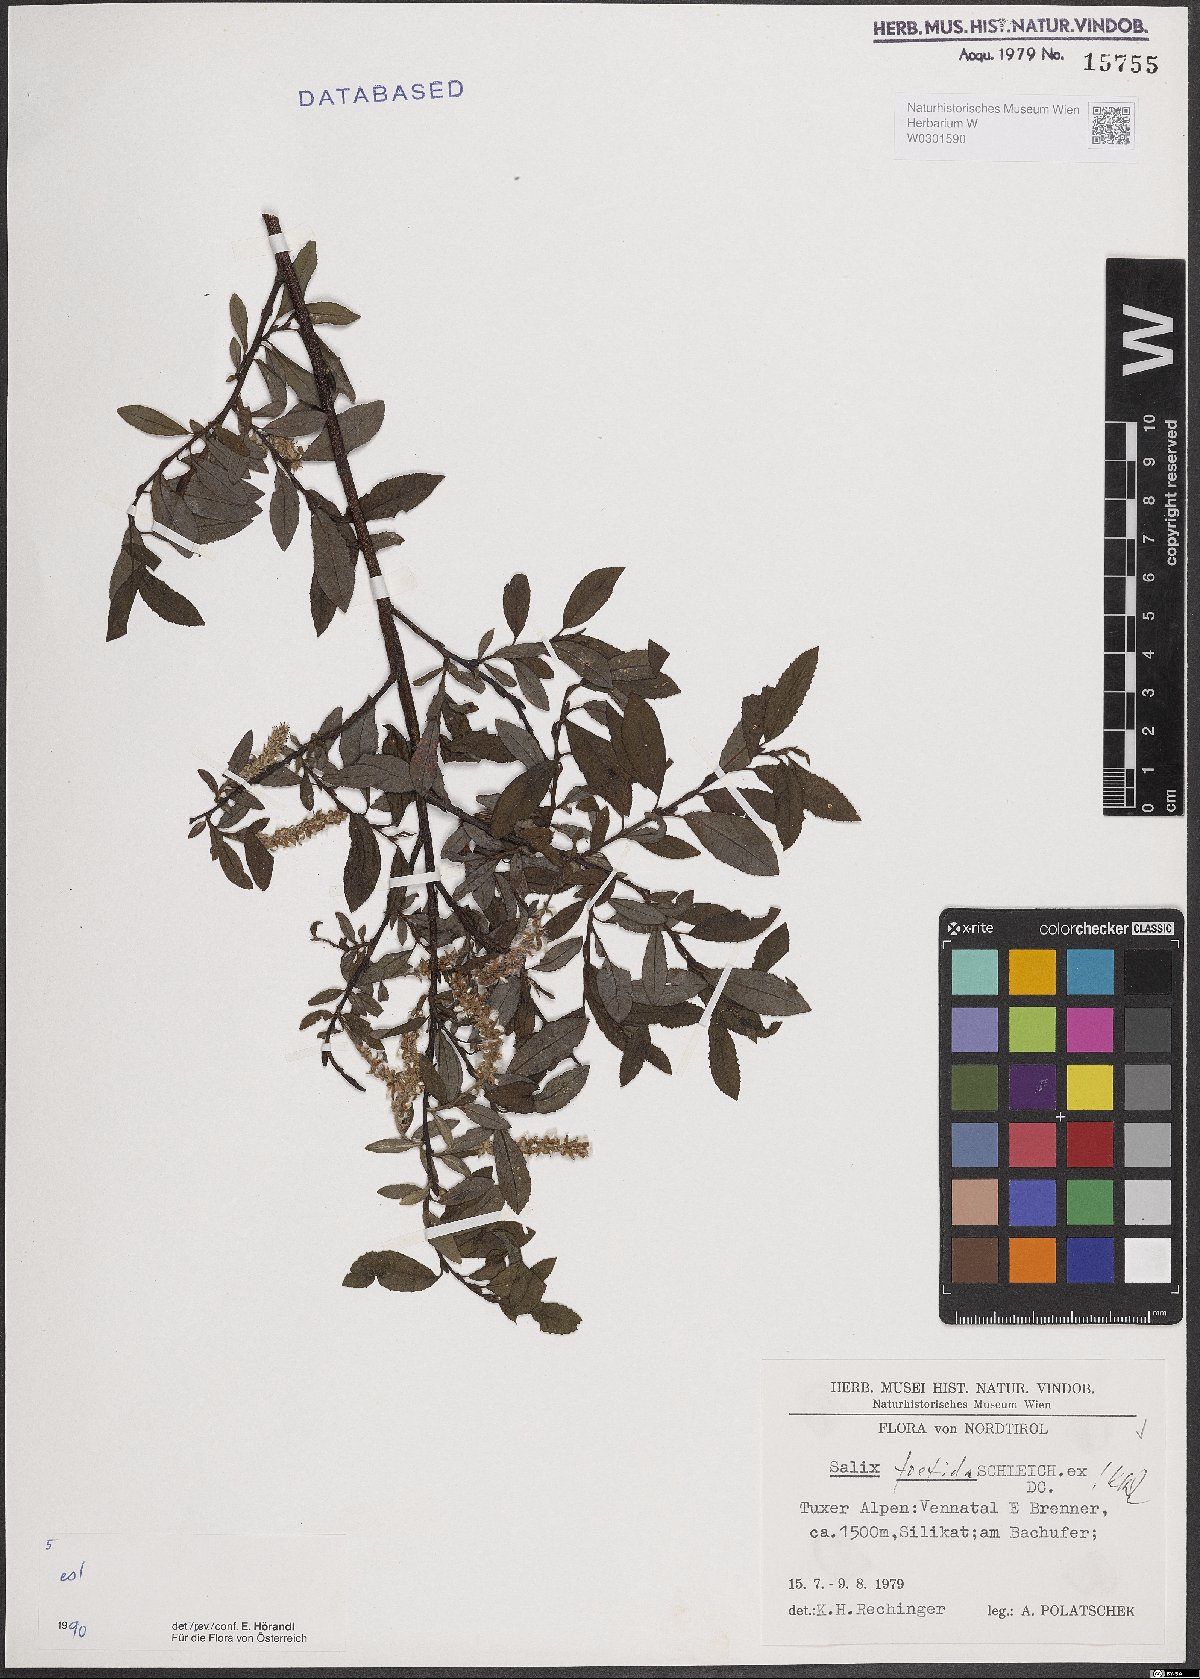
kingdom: Plantae
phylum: Tracheophyta
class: Magnoliopsida
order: Malpighiales
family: Salicaceae
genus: Salix
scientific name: Salix foetida
